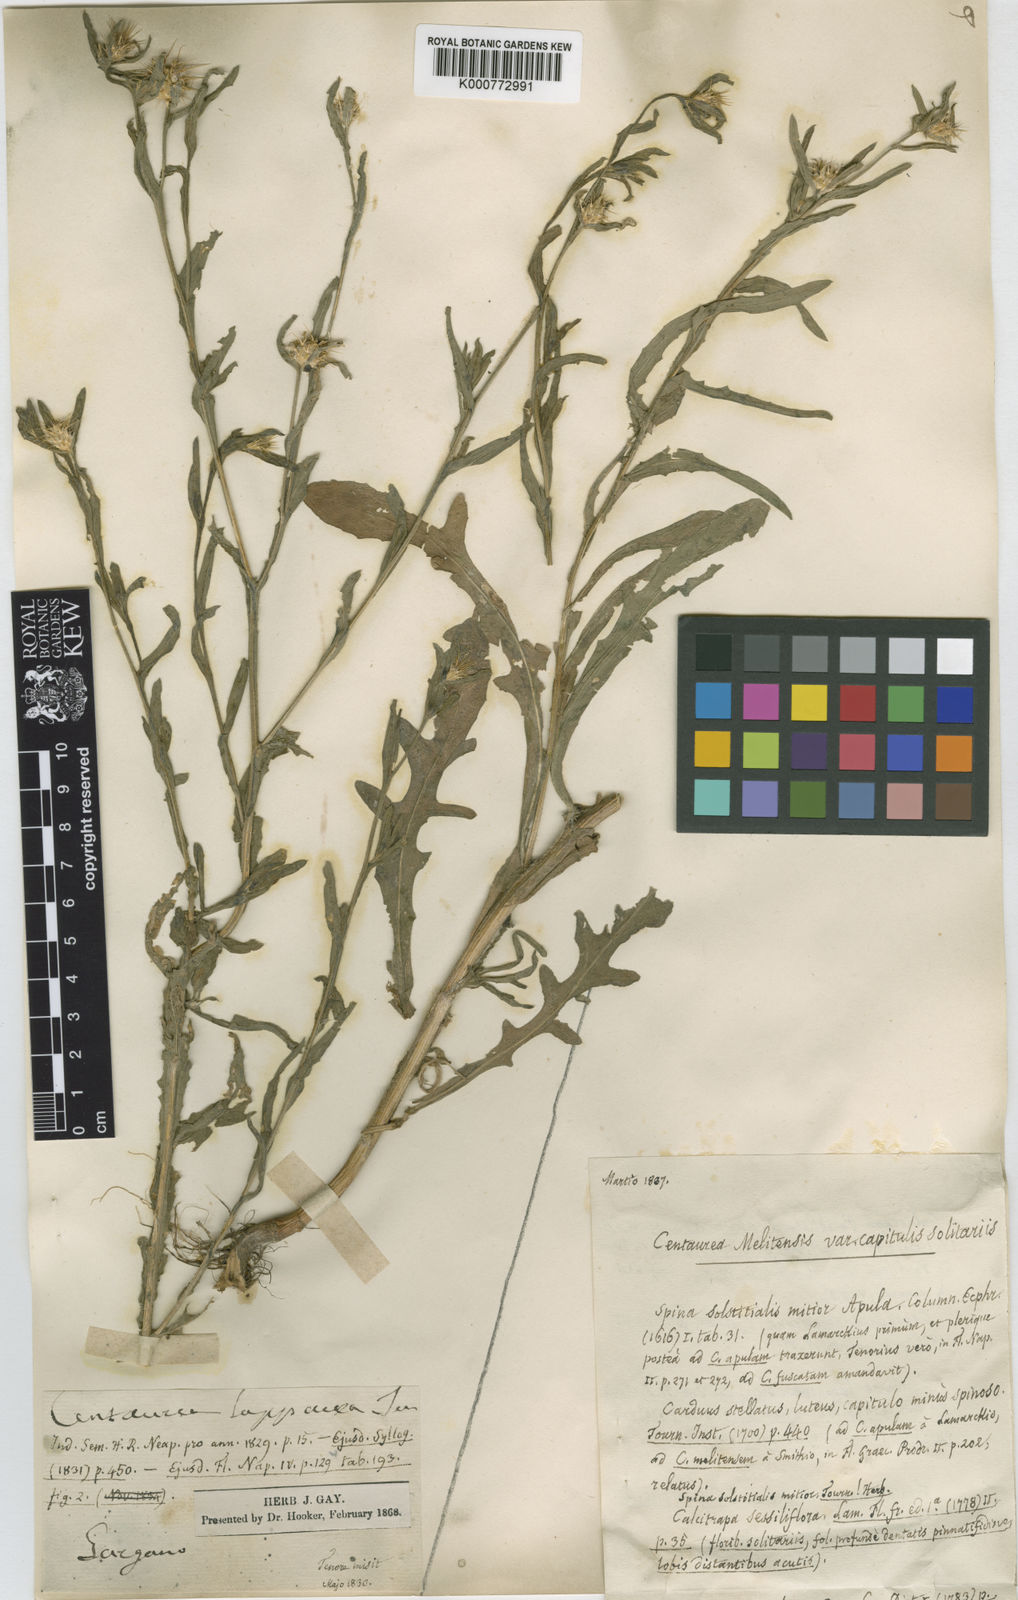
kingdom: Plantae
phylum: Tracheophyta
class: Magnoliopsida
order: Asterales
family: Asteraceae
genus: Centaurea
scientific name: Centaurea melitensis
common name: Maltese star-thistle
